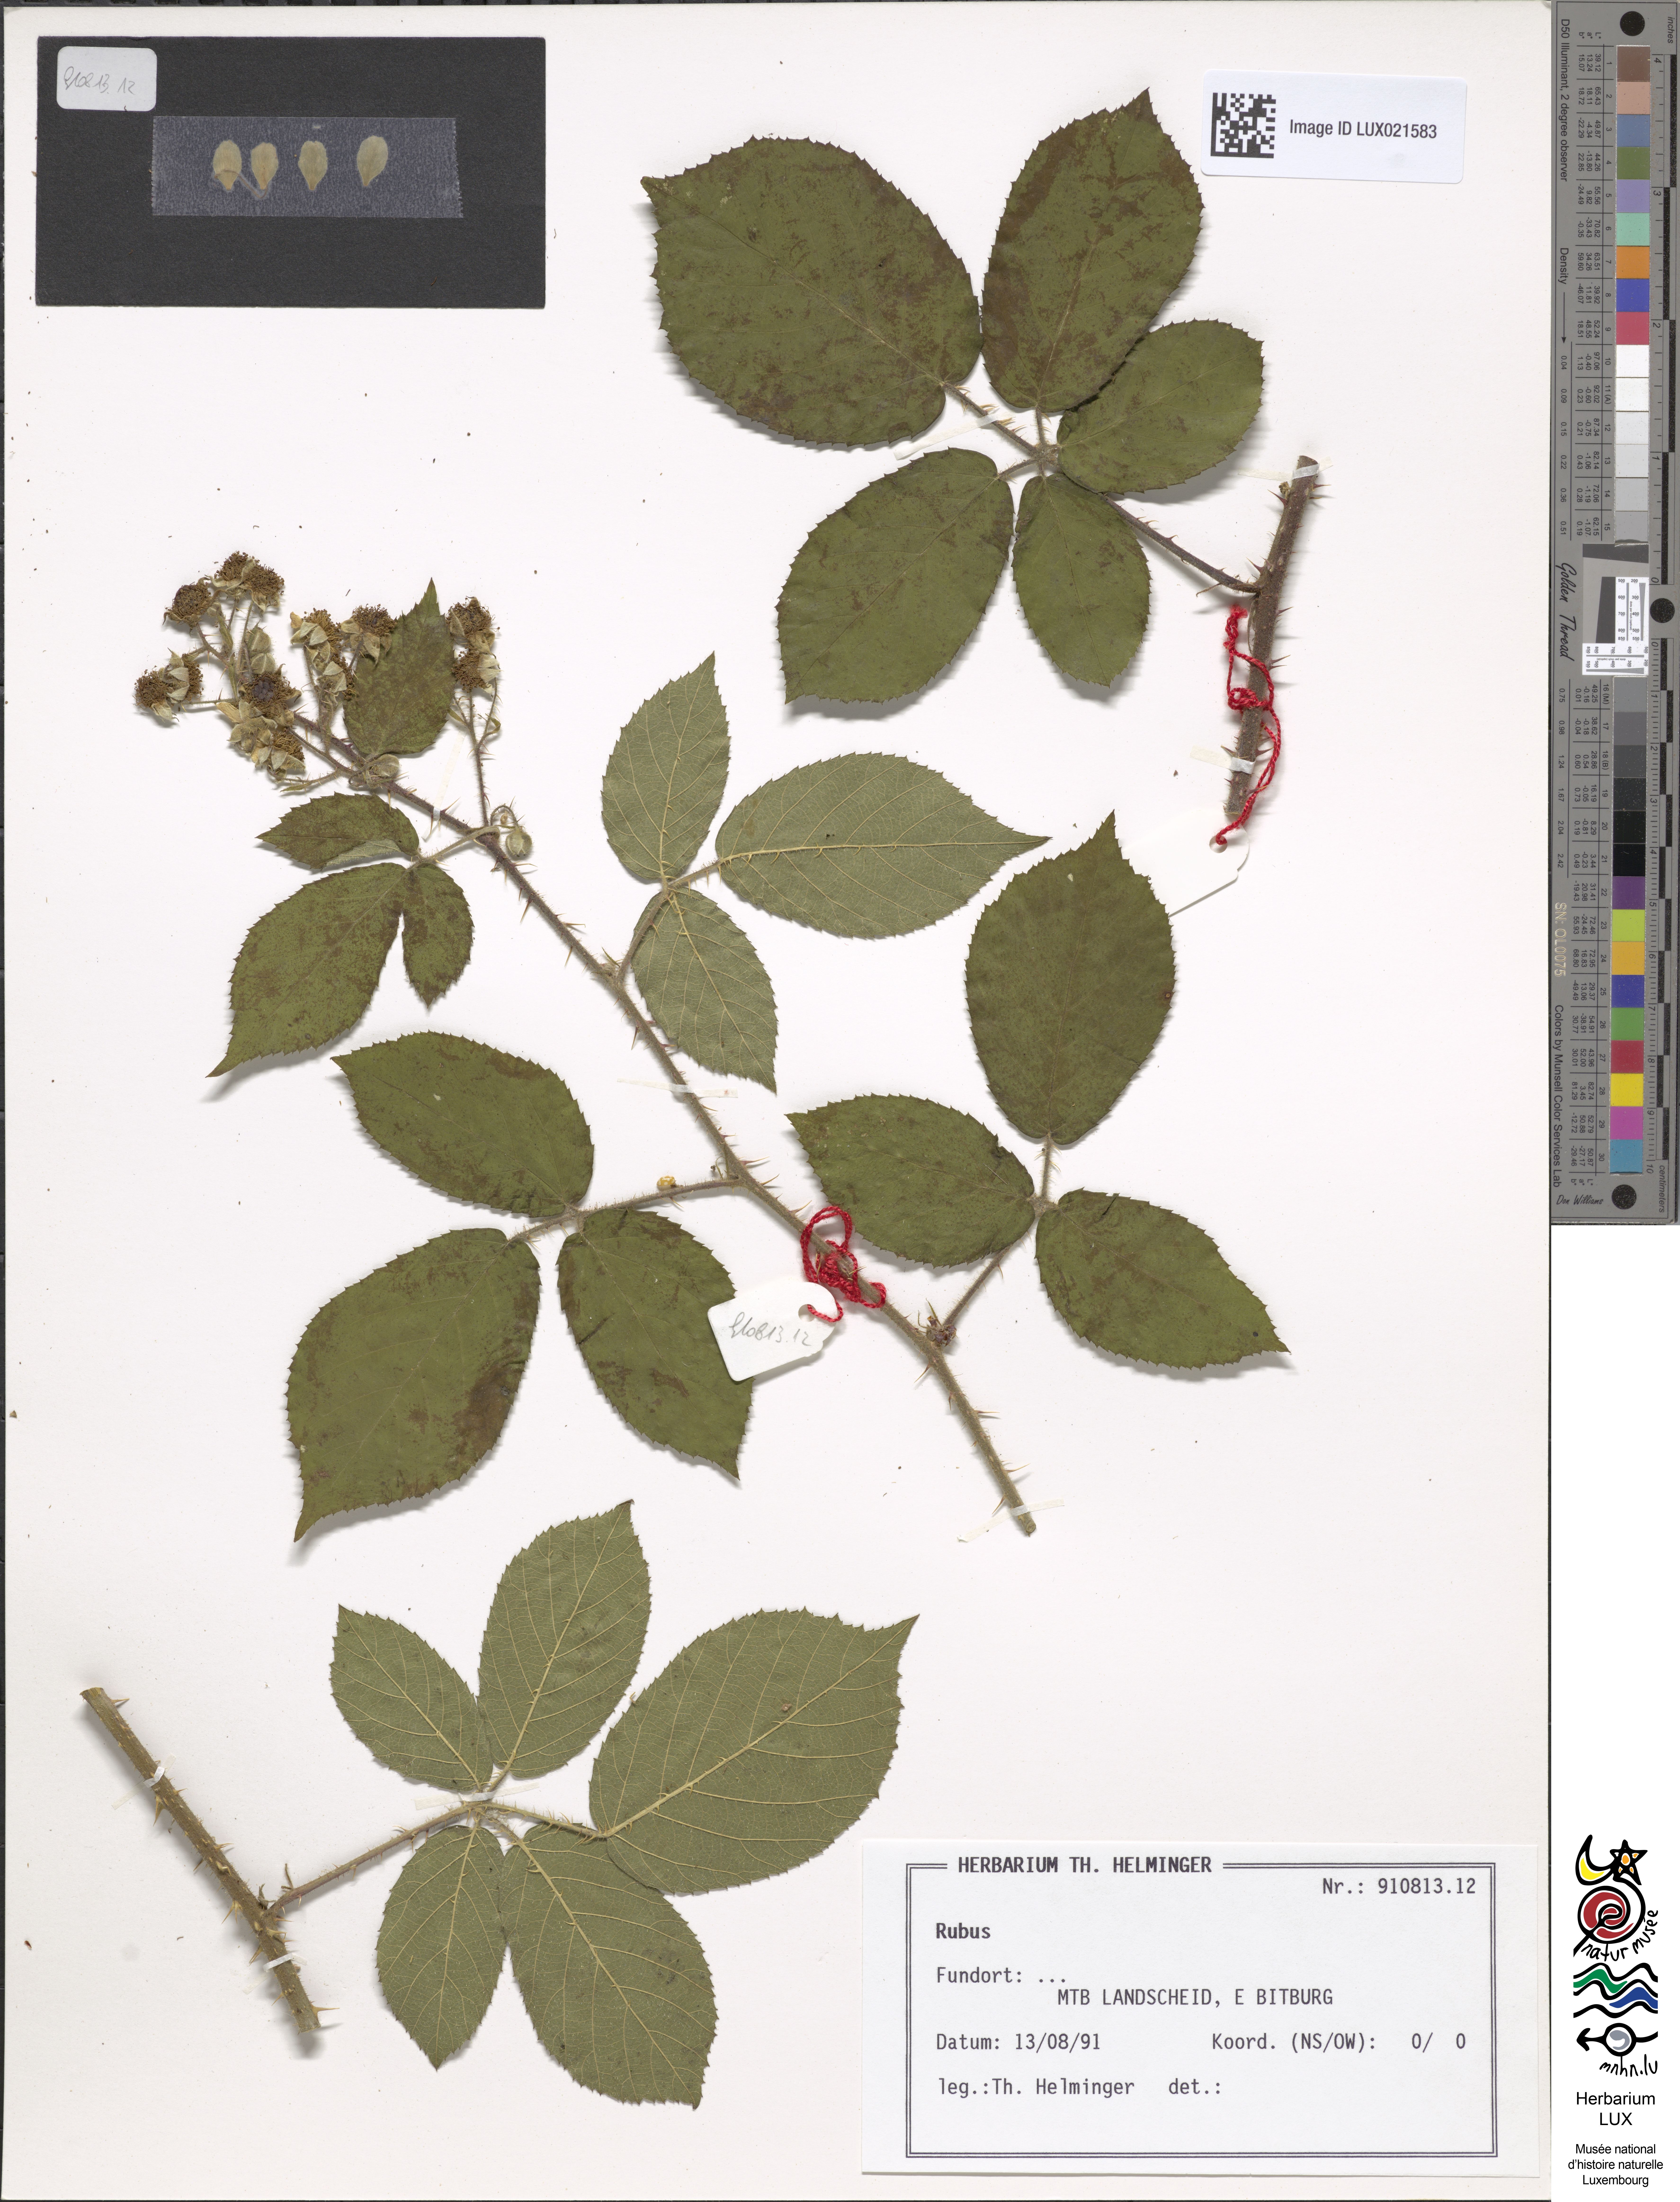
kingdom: Plantae
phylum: Tracheophyta
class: Magnoliopsida
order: Rosales
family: Rosaceae
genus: Rubus
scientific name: Rubus
